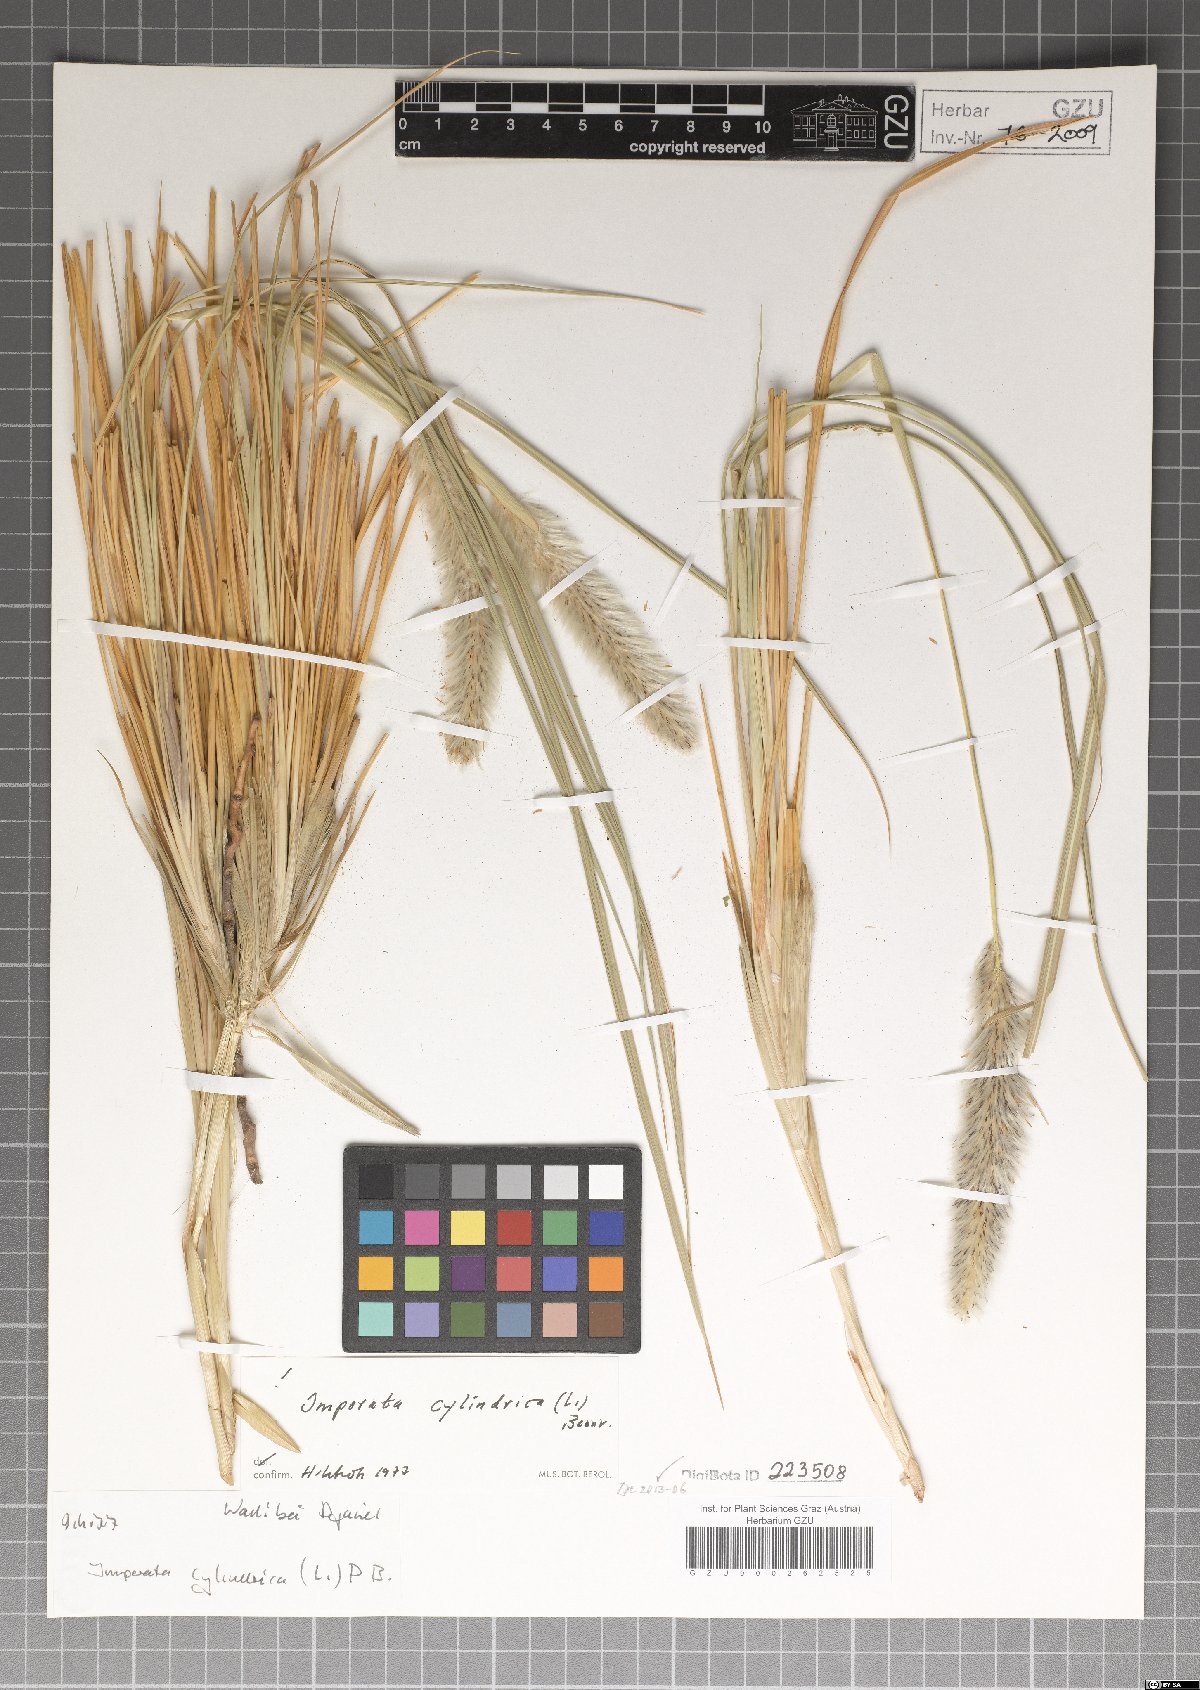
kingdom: Plantae
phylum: Tracheophyta
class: Liliopsida
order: Poales
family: Poaceae
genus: Imperata
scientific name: Imperata cylindrica
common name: Cogongrass
